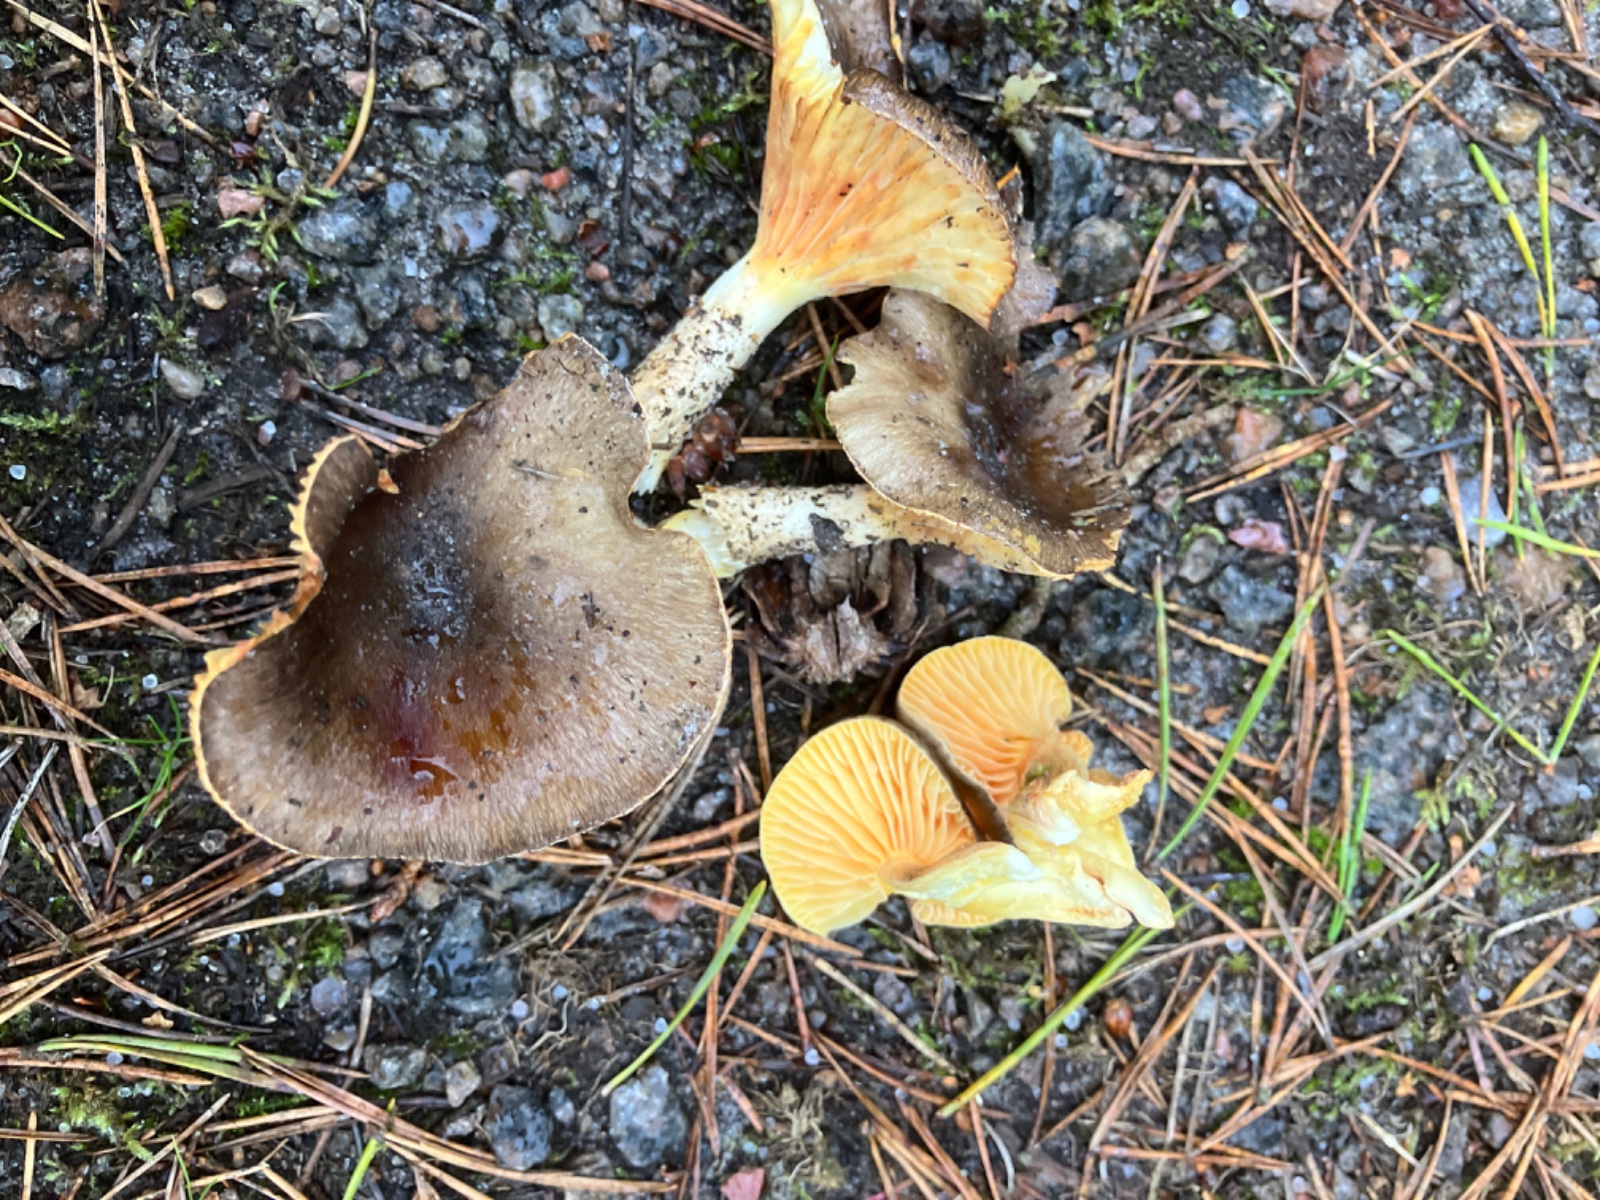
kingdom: Fungi
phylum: Basidiomycota
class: Agaricomycetes
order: Agaricales
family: Hygrophoraceae
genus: Hygrophorus
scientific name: Hygrophorus hypothejus
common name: frost-sneglehat
